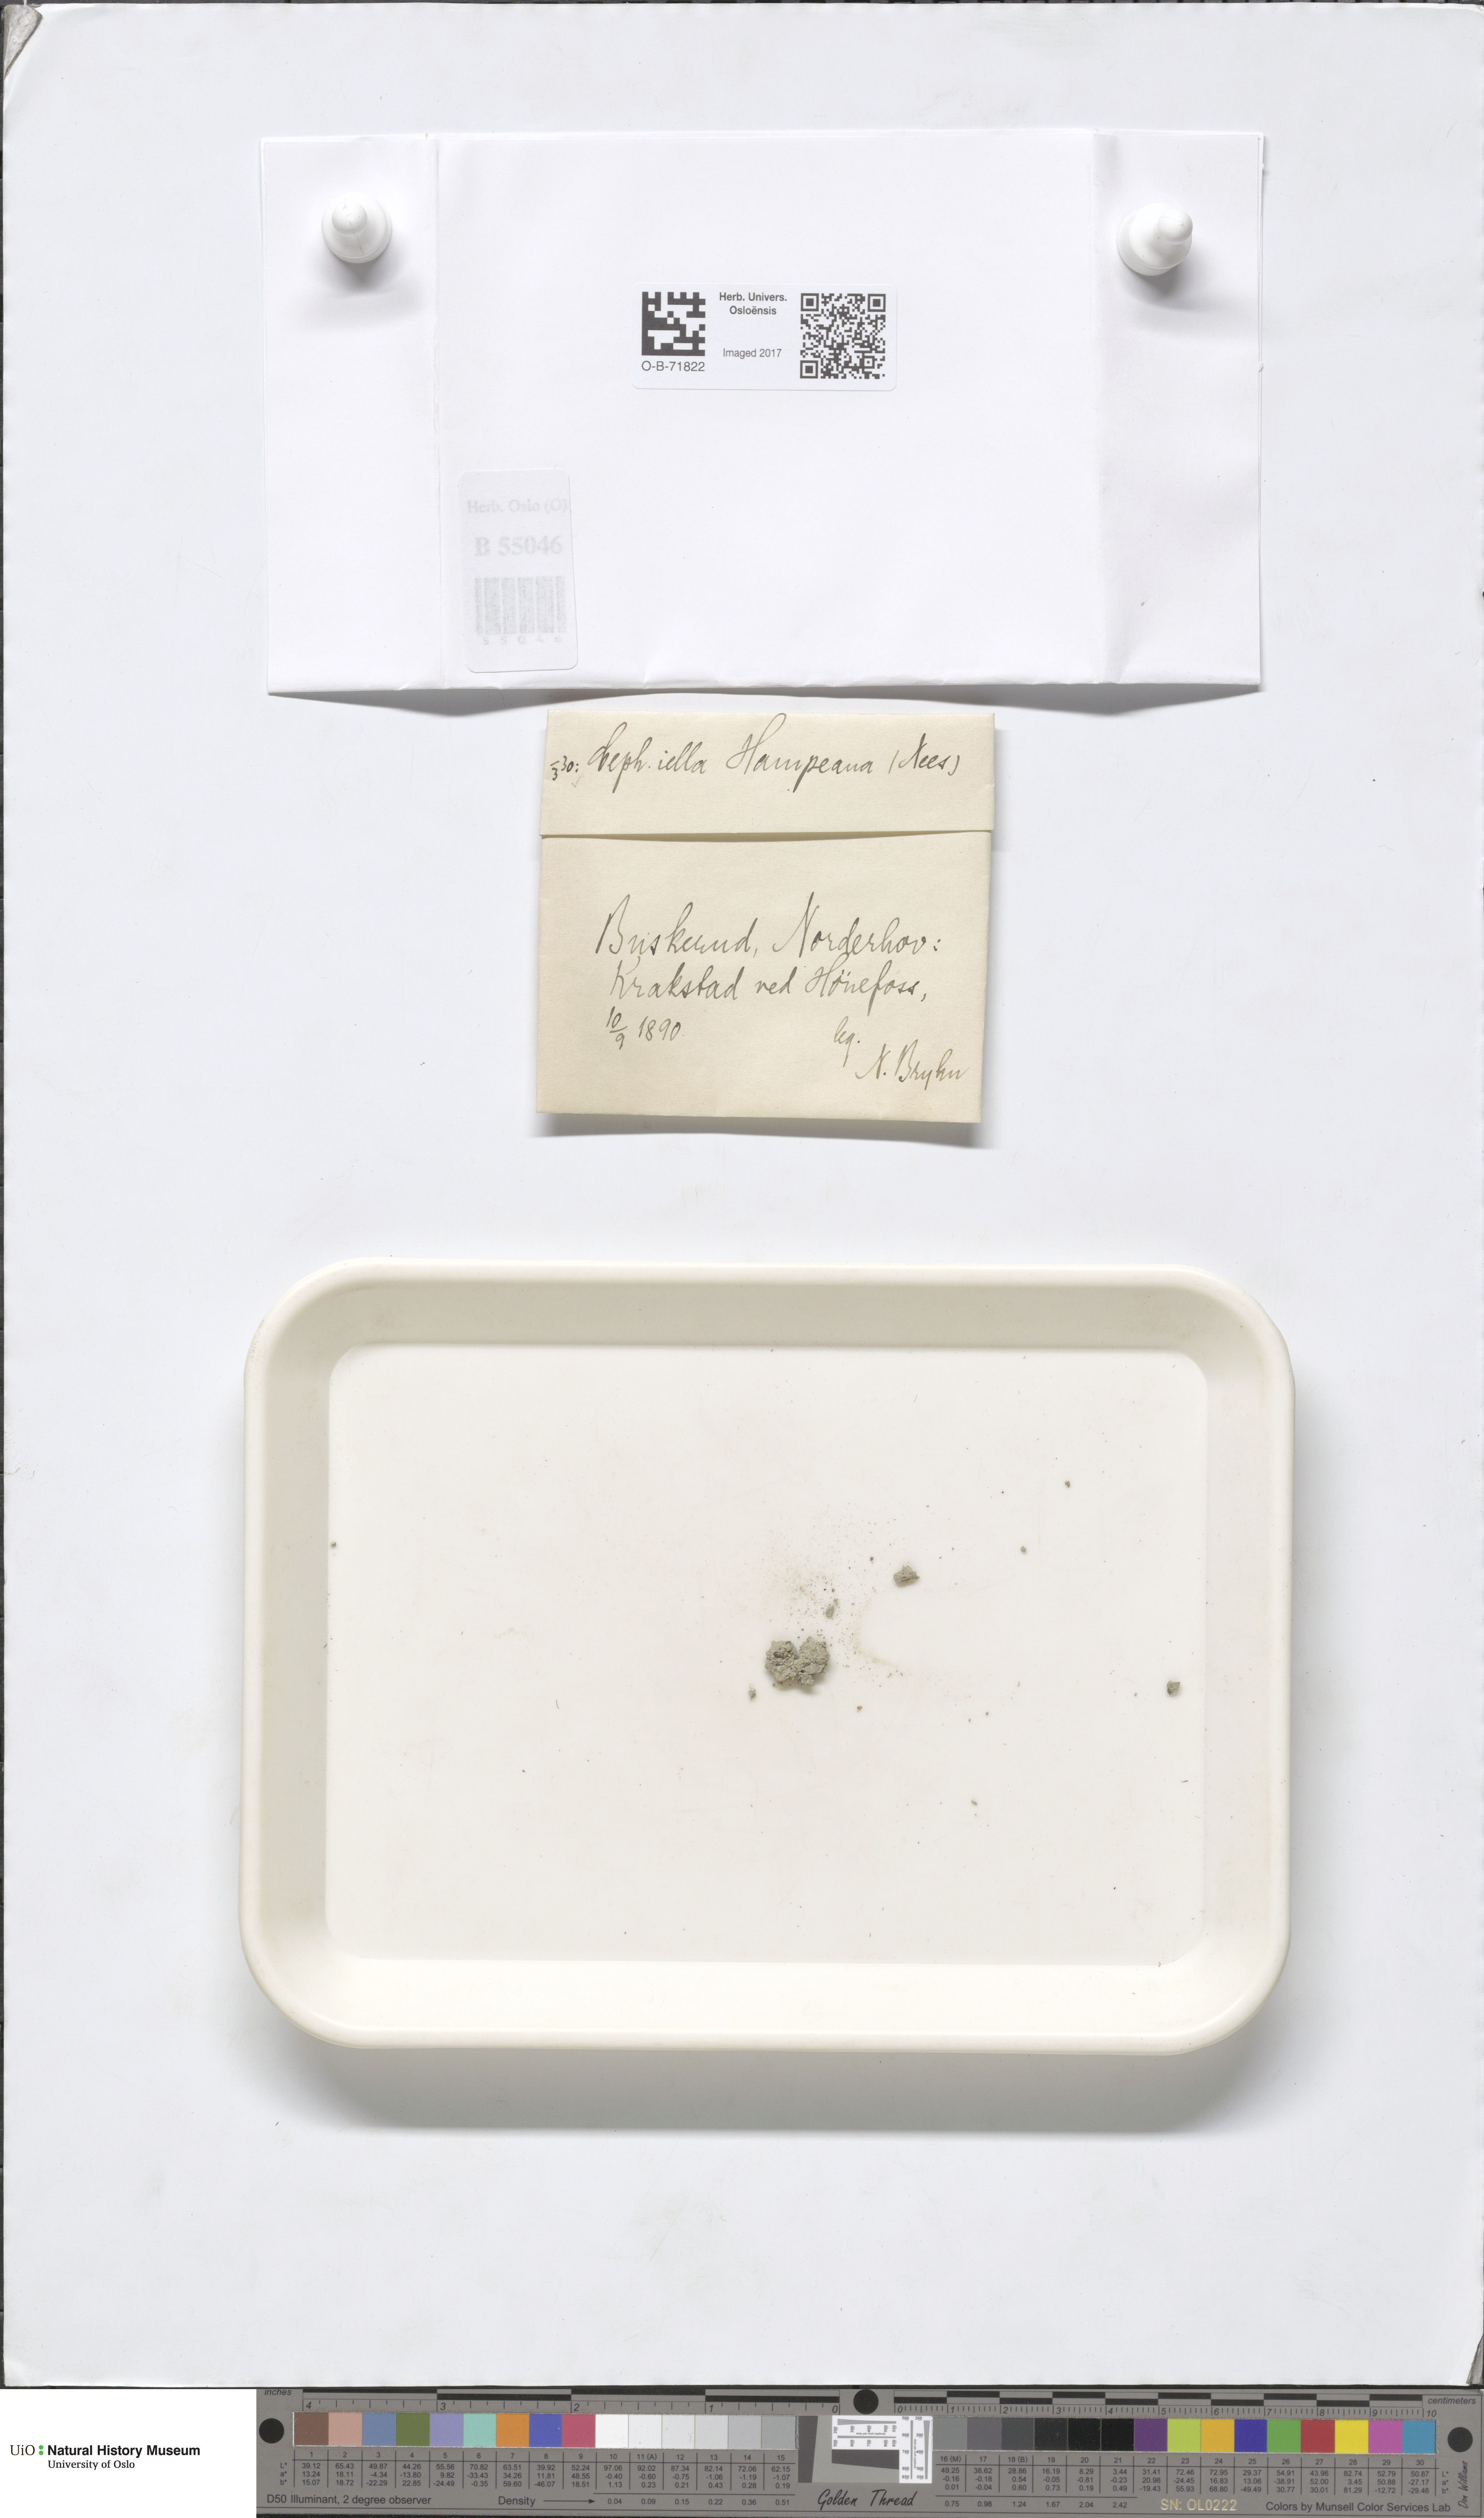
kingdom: Plantae
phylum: Marchantiophyta
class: Jungermanniopsida
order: Jungermanniales
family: Cephaloziellaceae
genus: Cephaloziella
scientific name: Cephaloziella hampeana
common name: Hampe s threadwort
